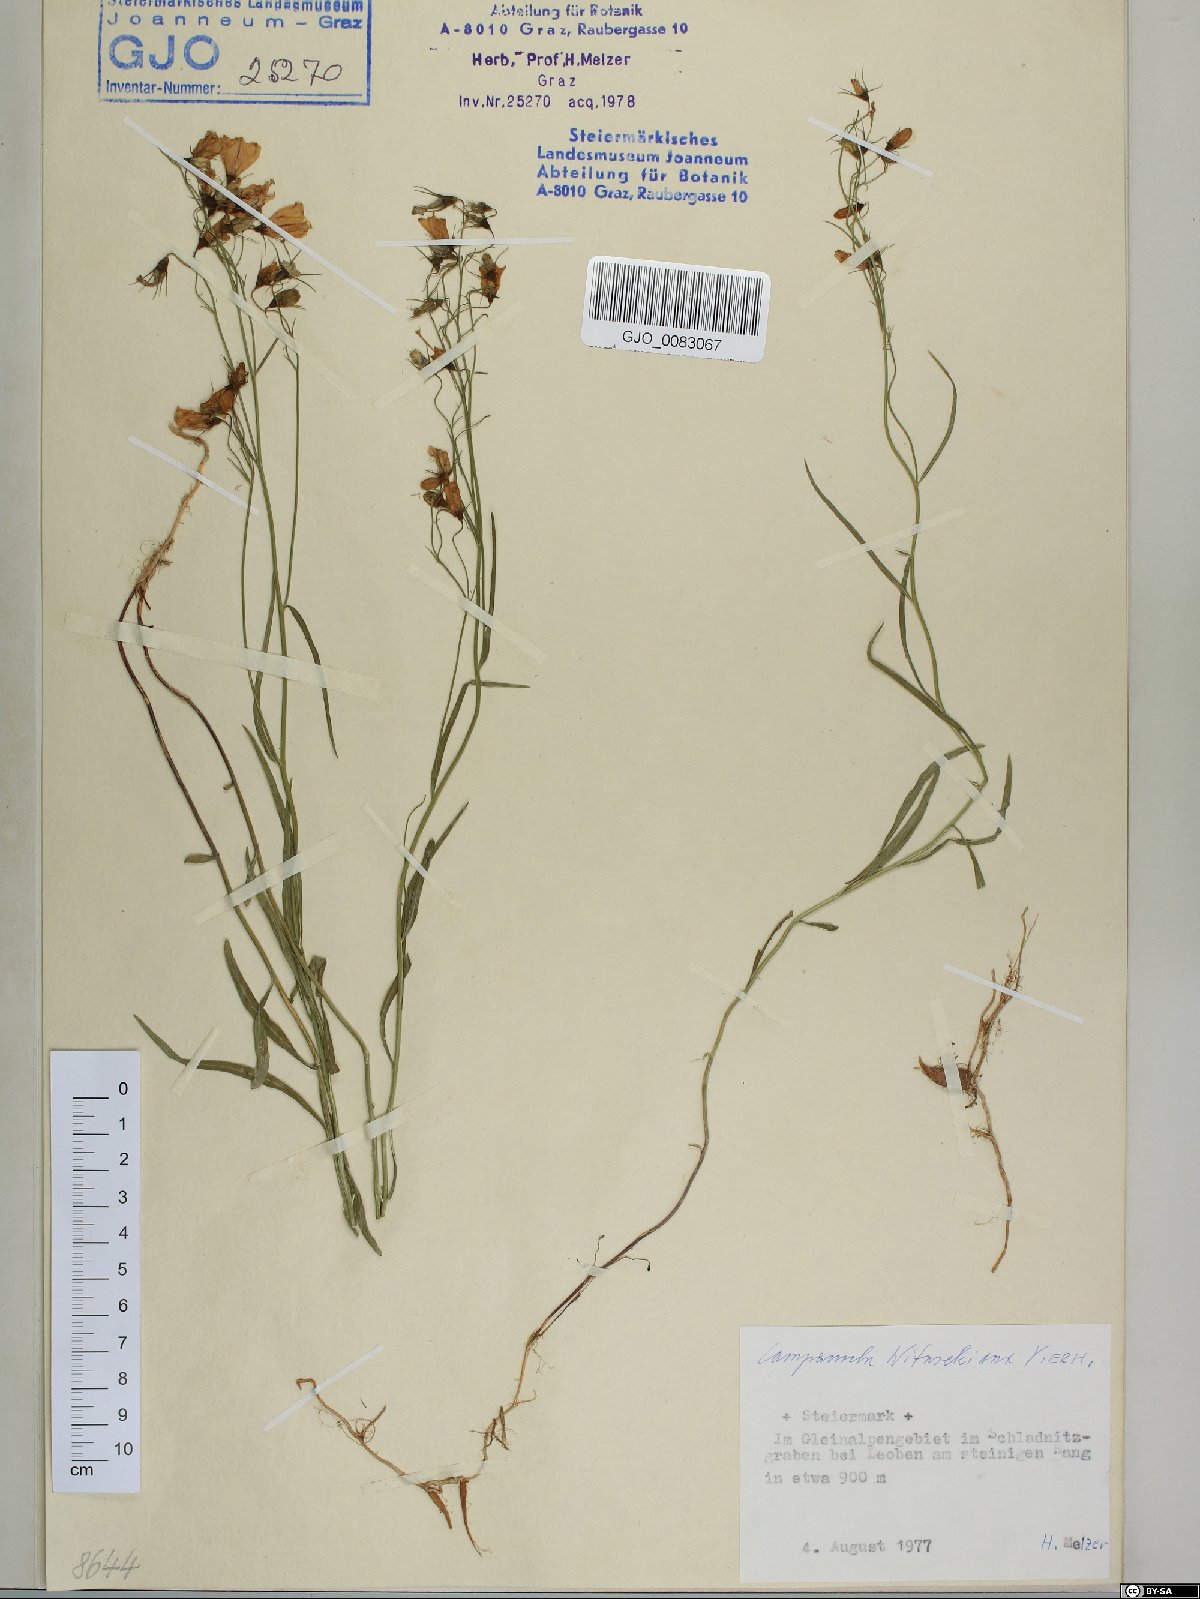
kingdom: Plantae
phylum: Tracheophyta
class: Magnoliopsida
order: Asterales
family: Campanulaceae
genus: Campanula
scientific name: Campanula witasekiana
